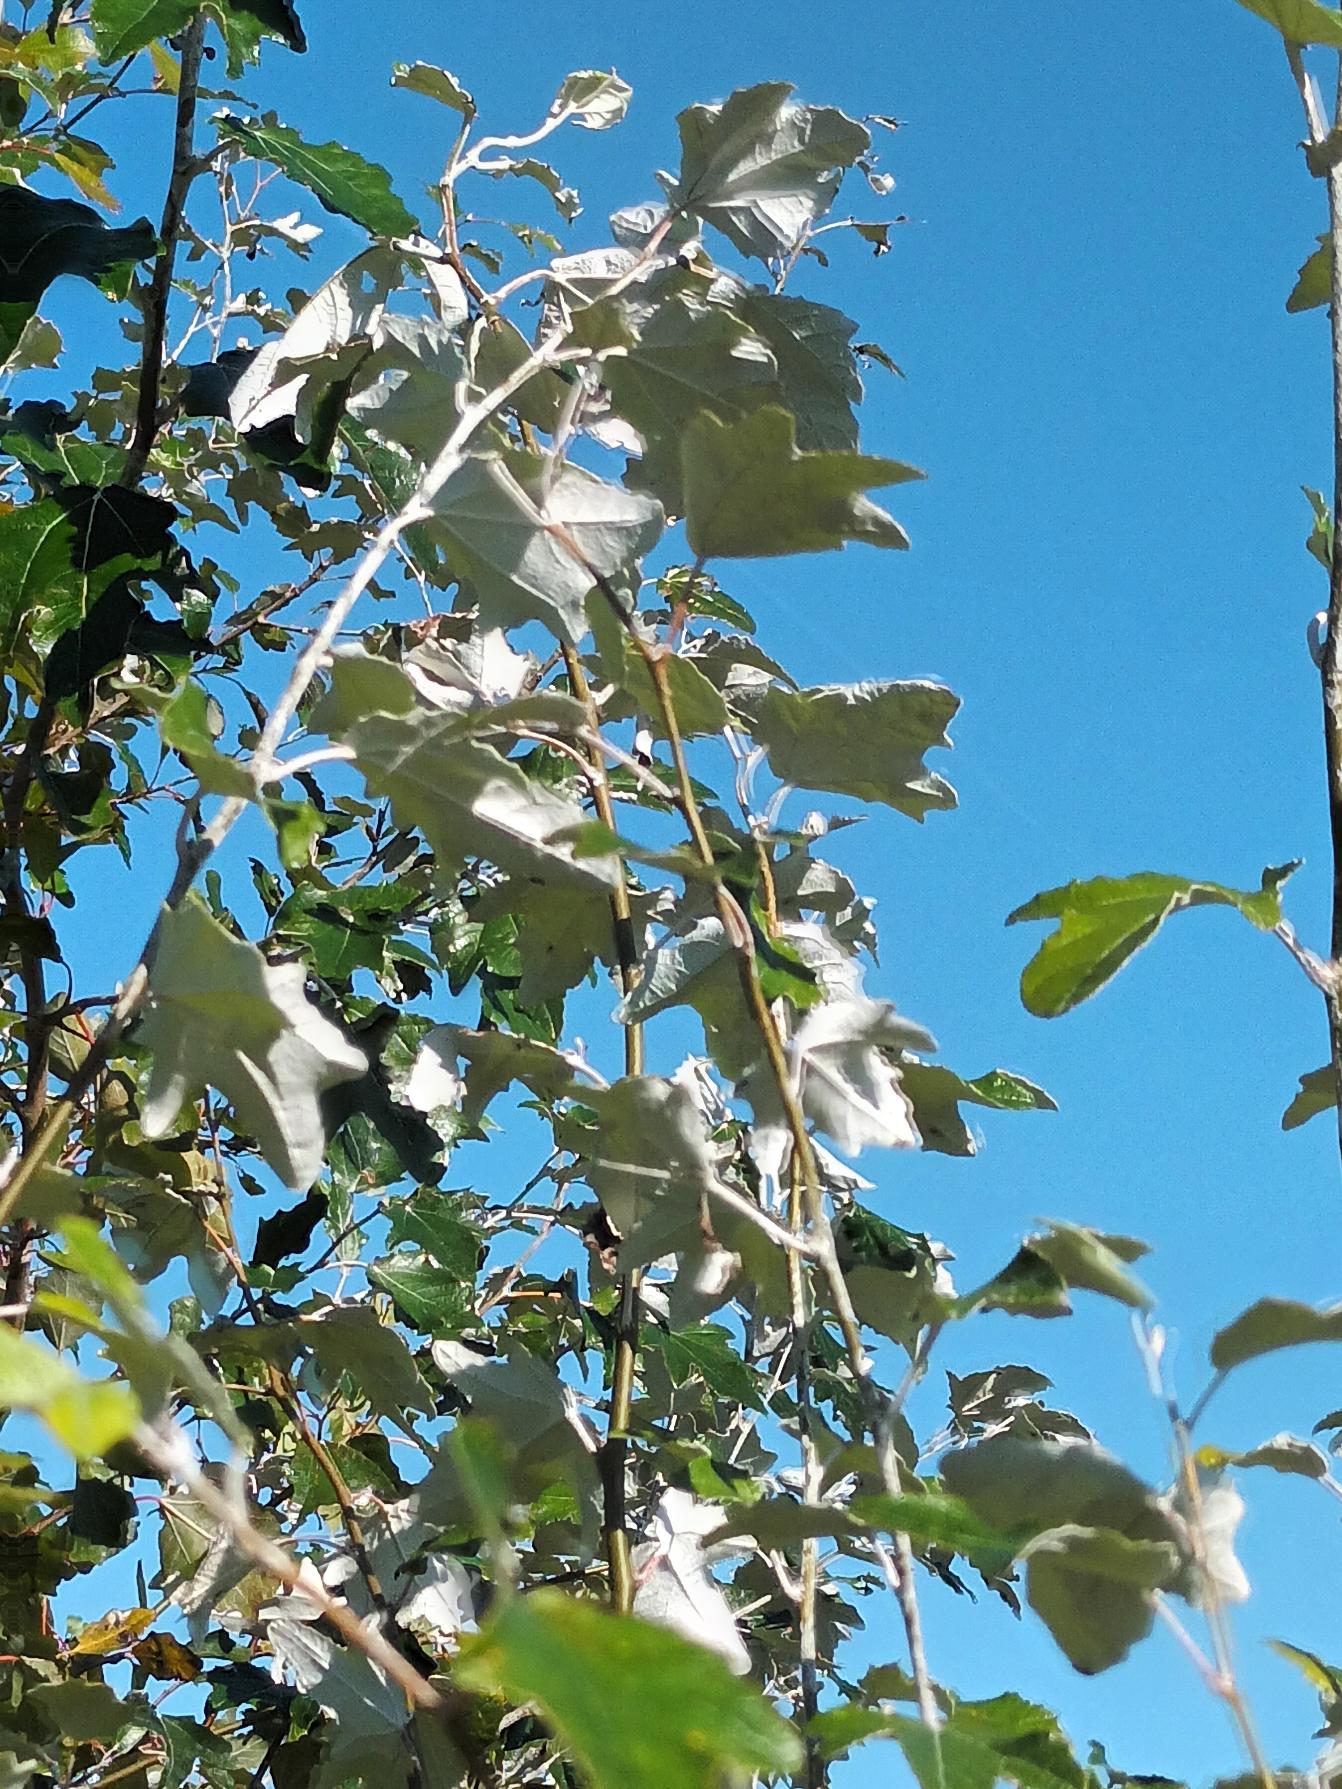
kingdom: Plantae
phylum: Tracheophyta
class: Magnoliopsida
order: Malpighiales
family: Salicaceae
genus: Populus
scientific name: Populus alba
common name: Sølv-poppel
